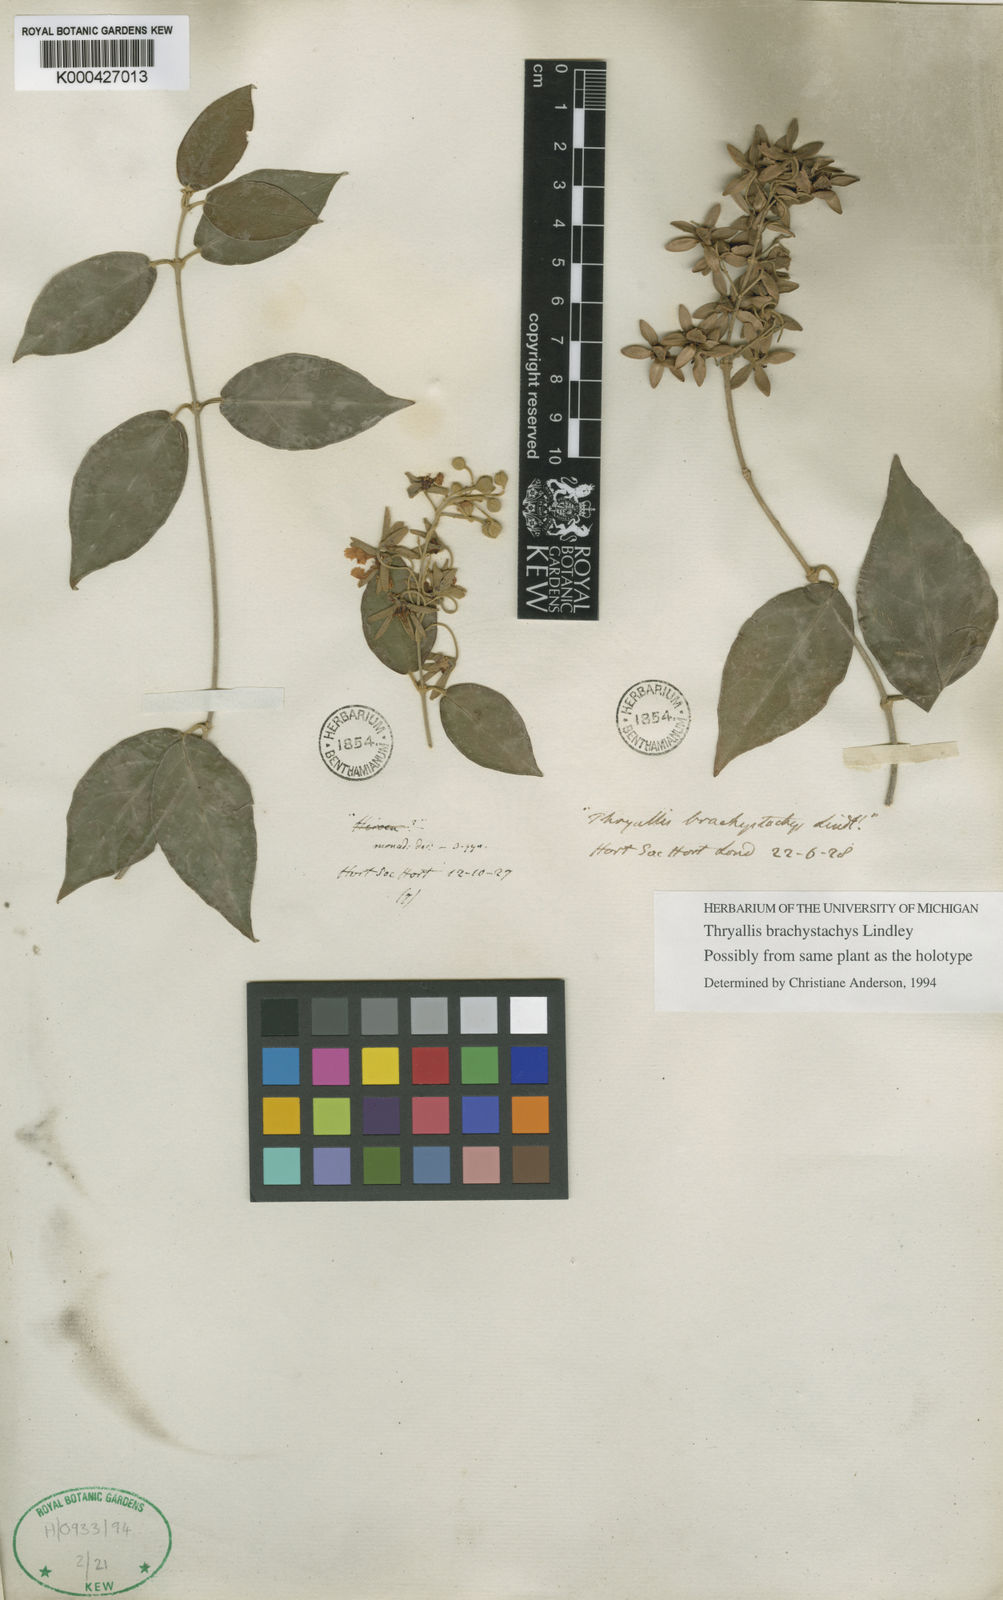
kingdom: Plantae
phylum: Tracheophyta
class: Magnoliopsida
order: Malpighiales
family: Malpighiaceae
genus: Thryallis
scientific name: Thryallis brachystachys
